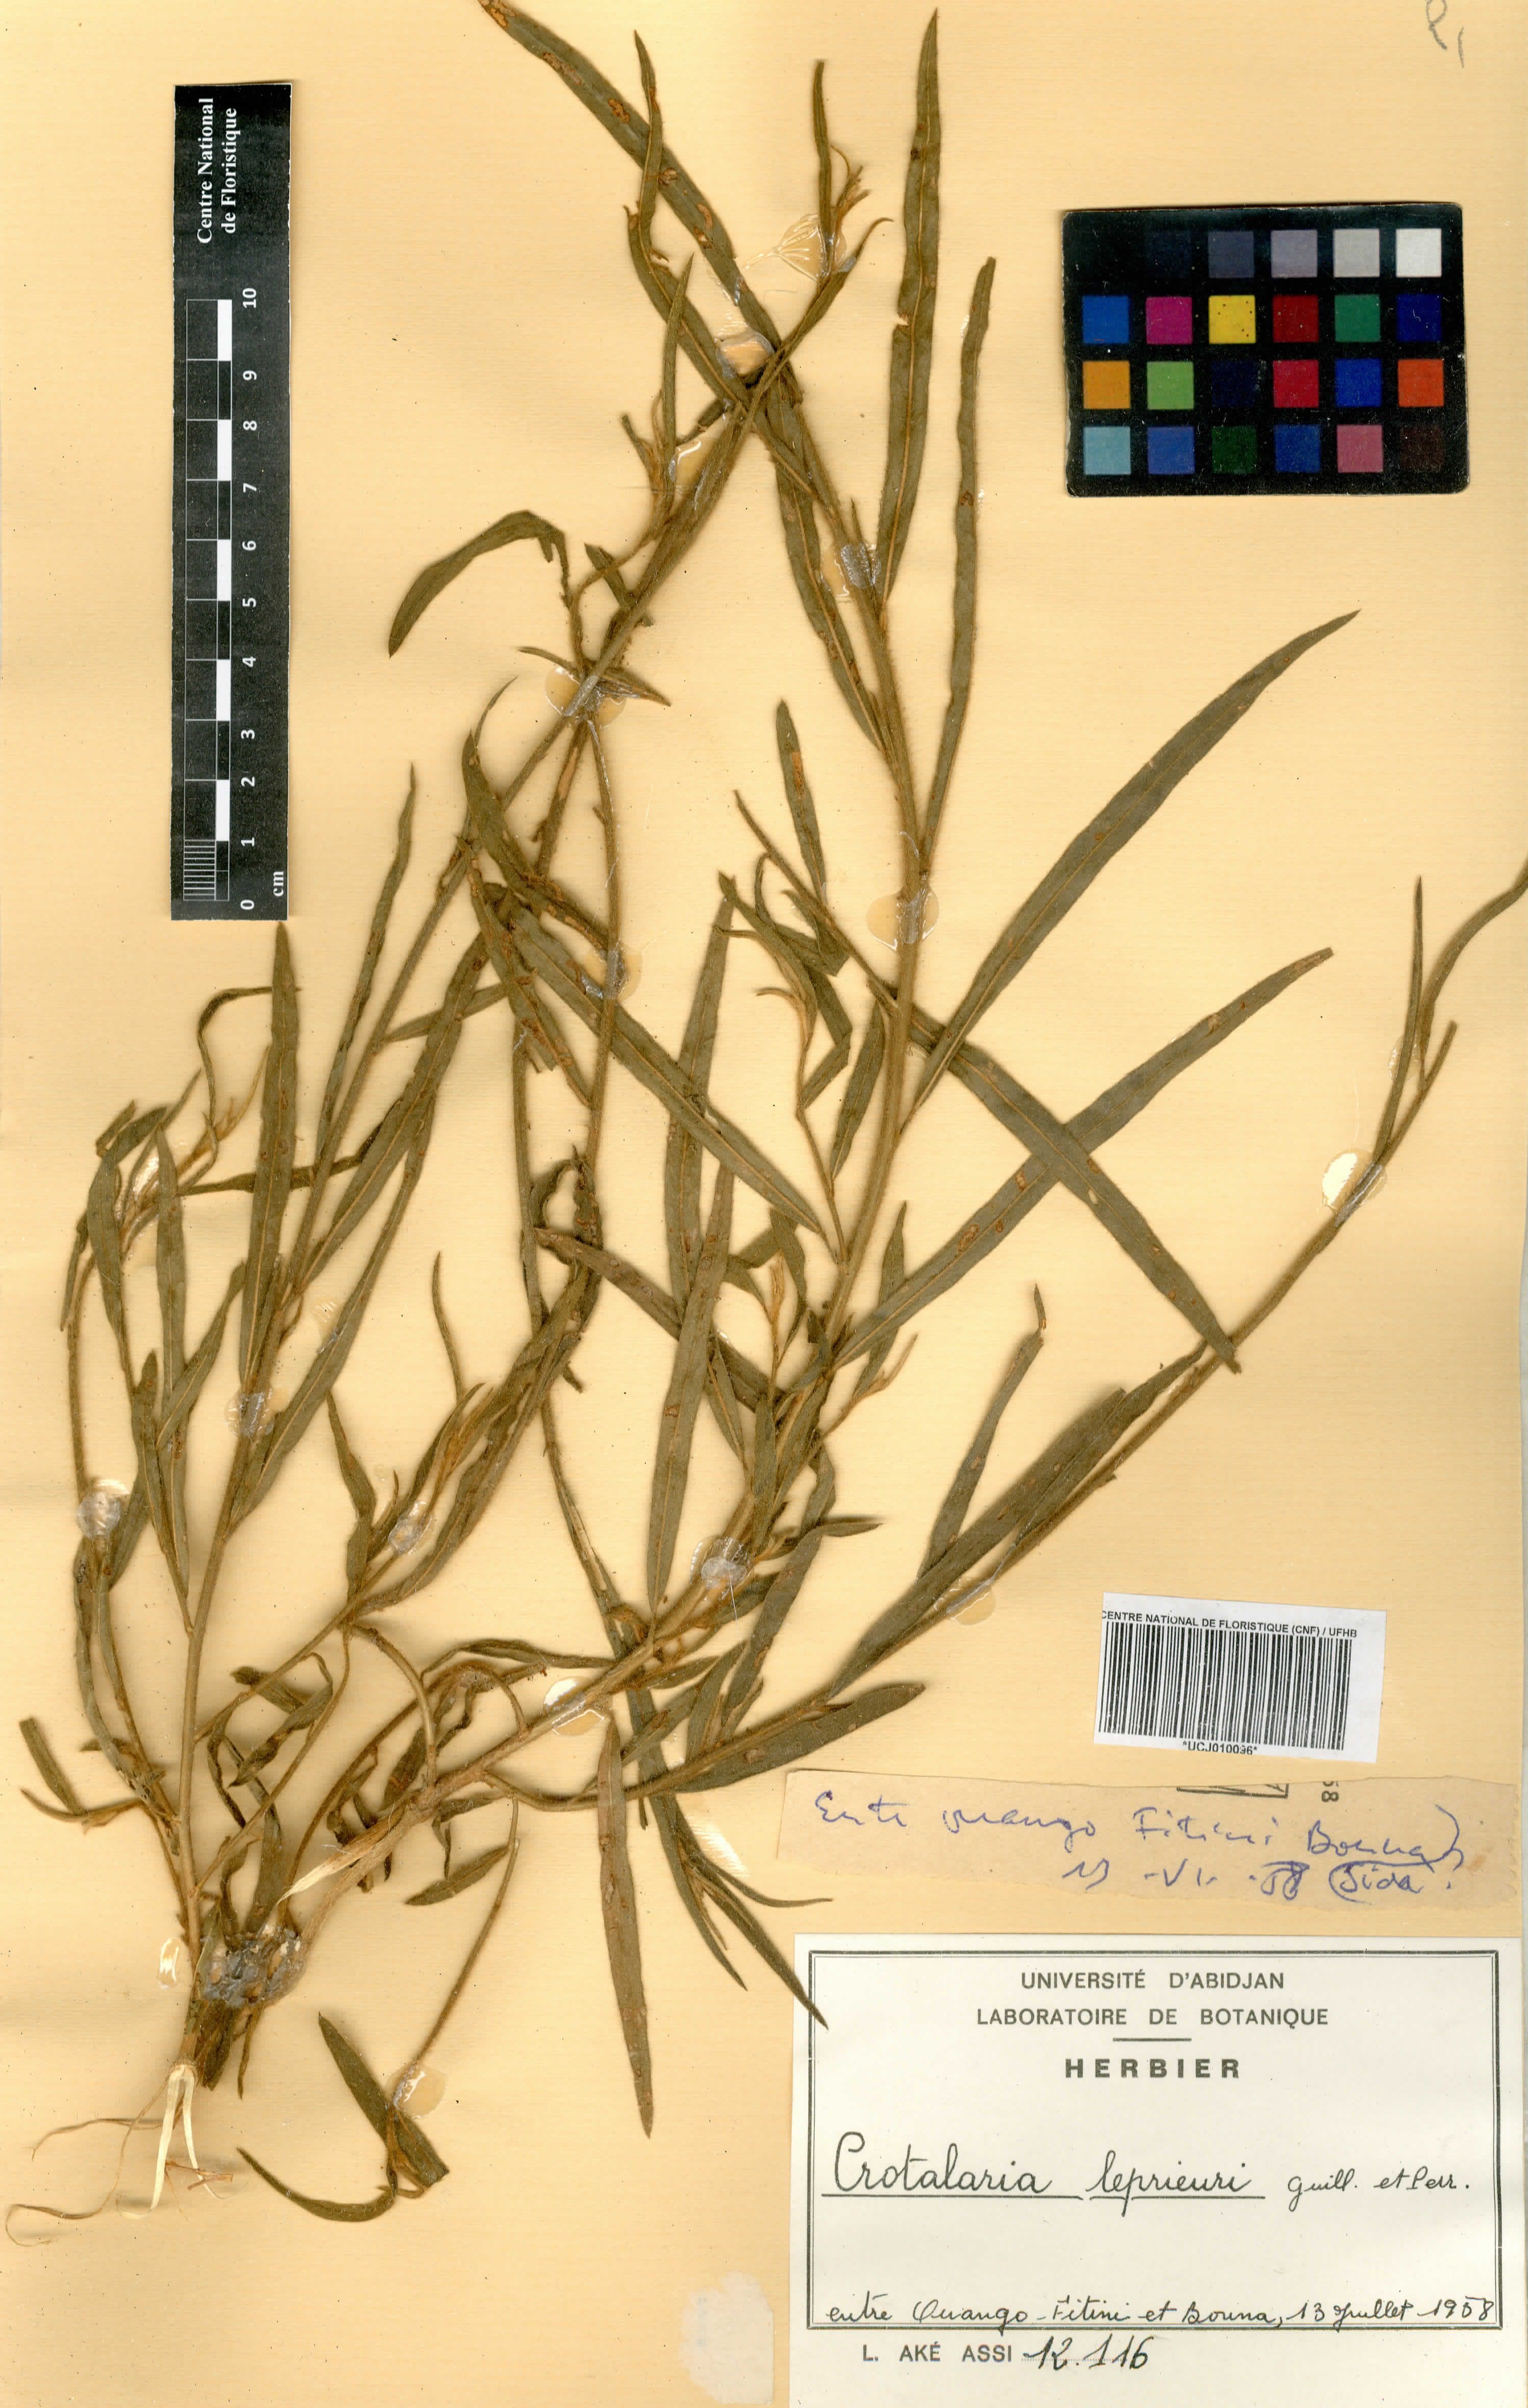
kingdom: Plantae
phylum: Tracheophyta
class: Magnoliopsida
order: Fabales
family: Fabaceae
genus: Crotalaria
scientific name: Crotalaria leprieurii
